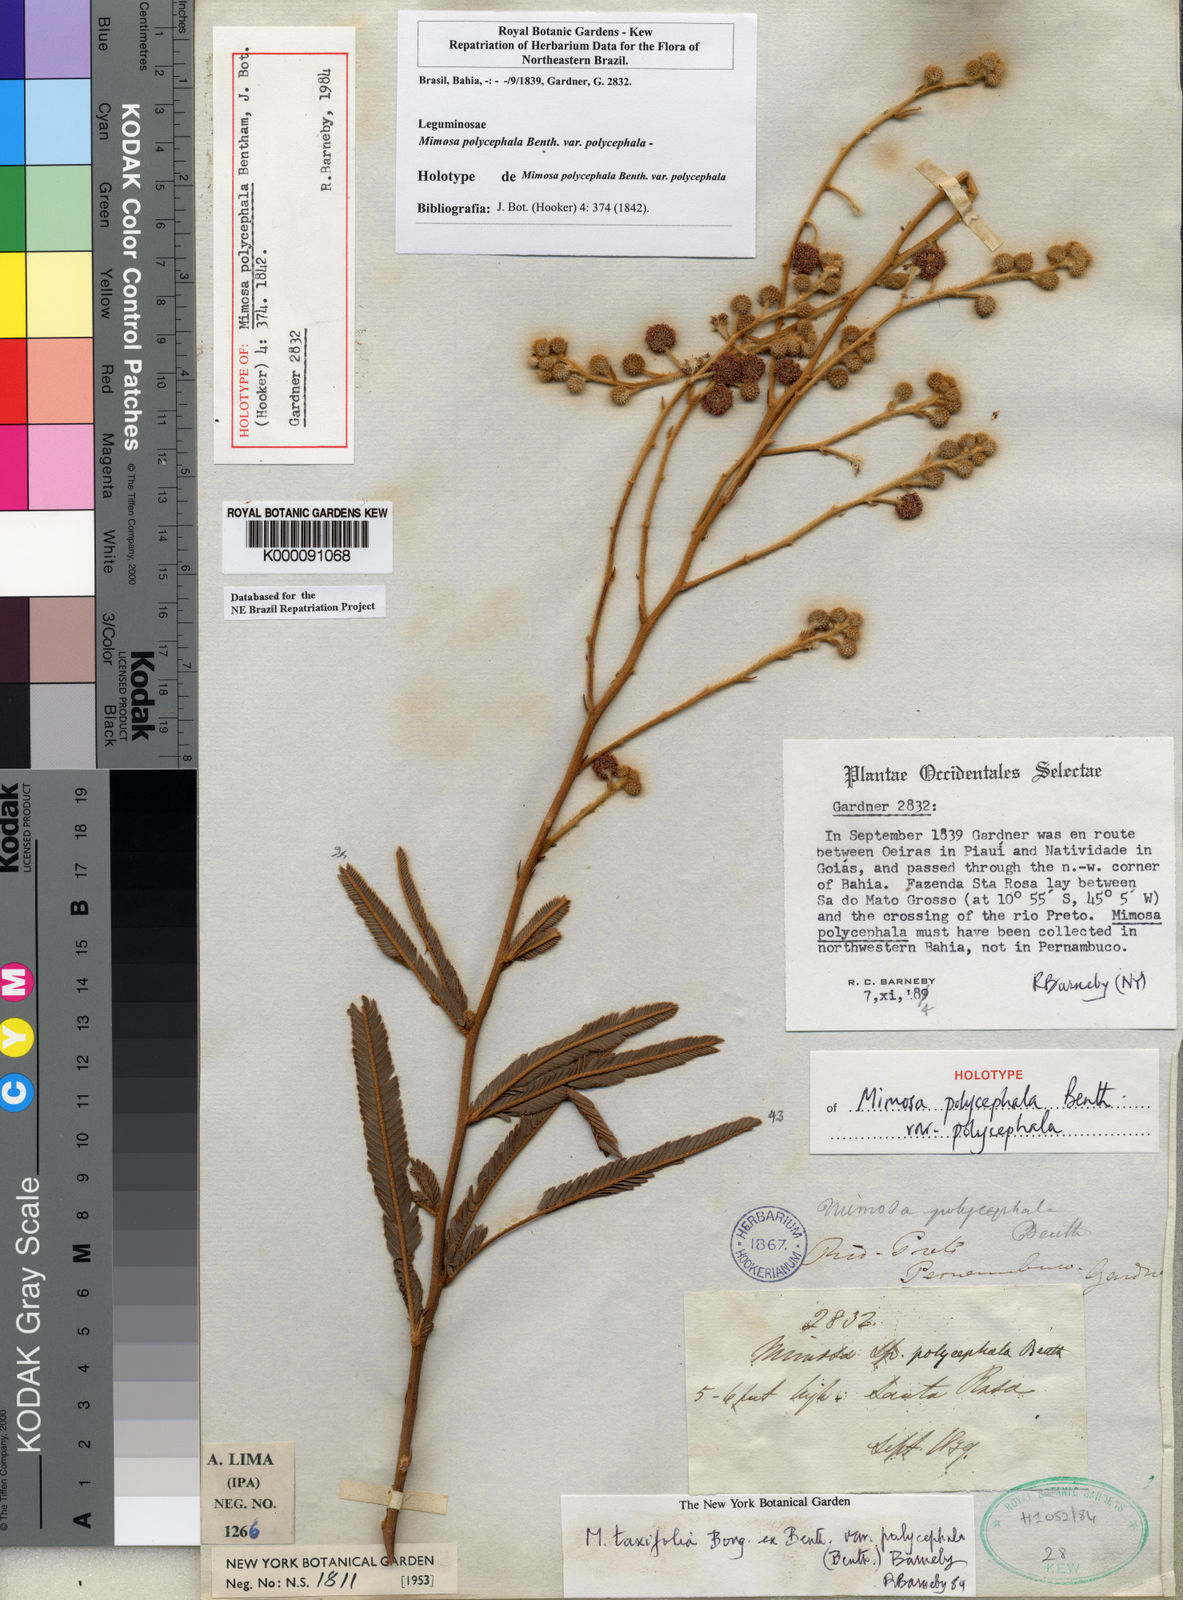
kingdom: Plantae
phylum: Tracheophyta
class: Magnoliopsida
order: Fabales
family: Fabaceae
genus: Mimosa
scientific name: Mimosa polycephala
